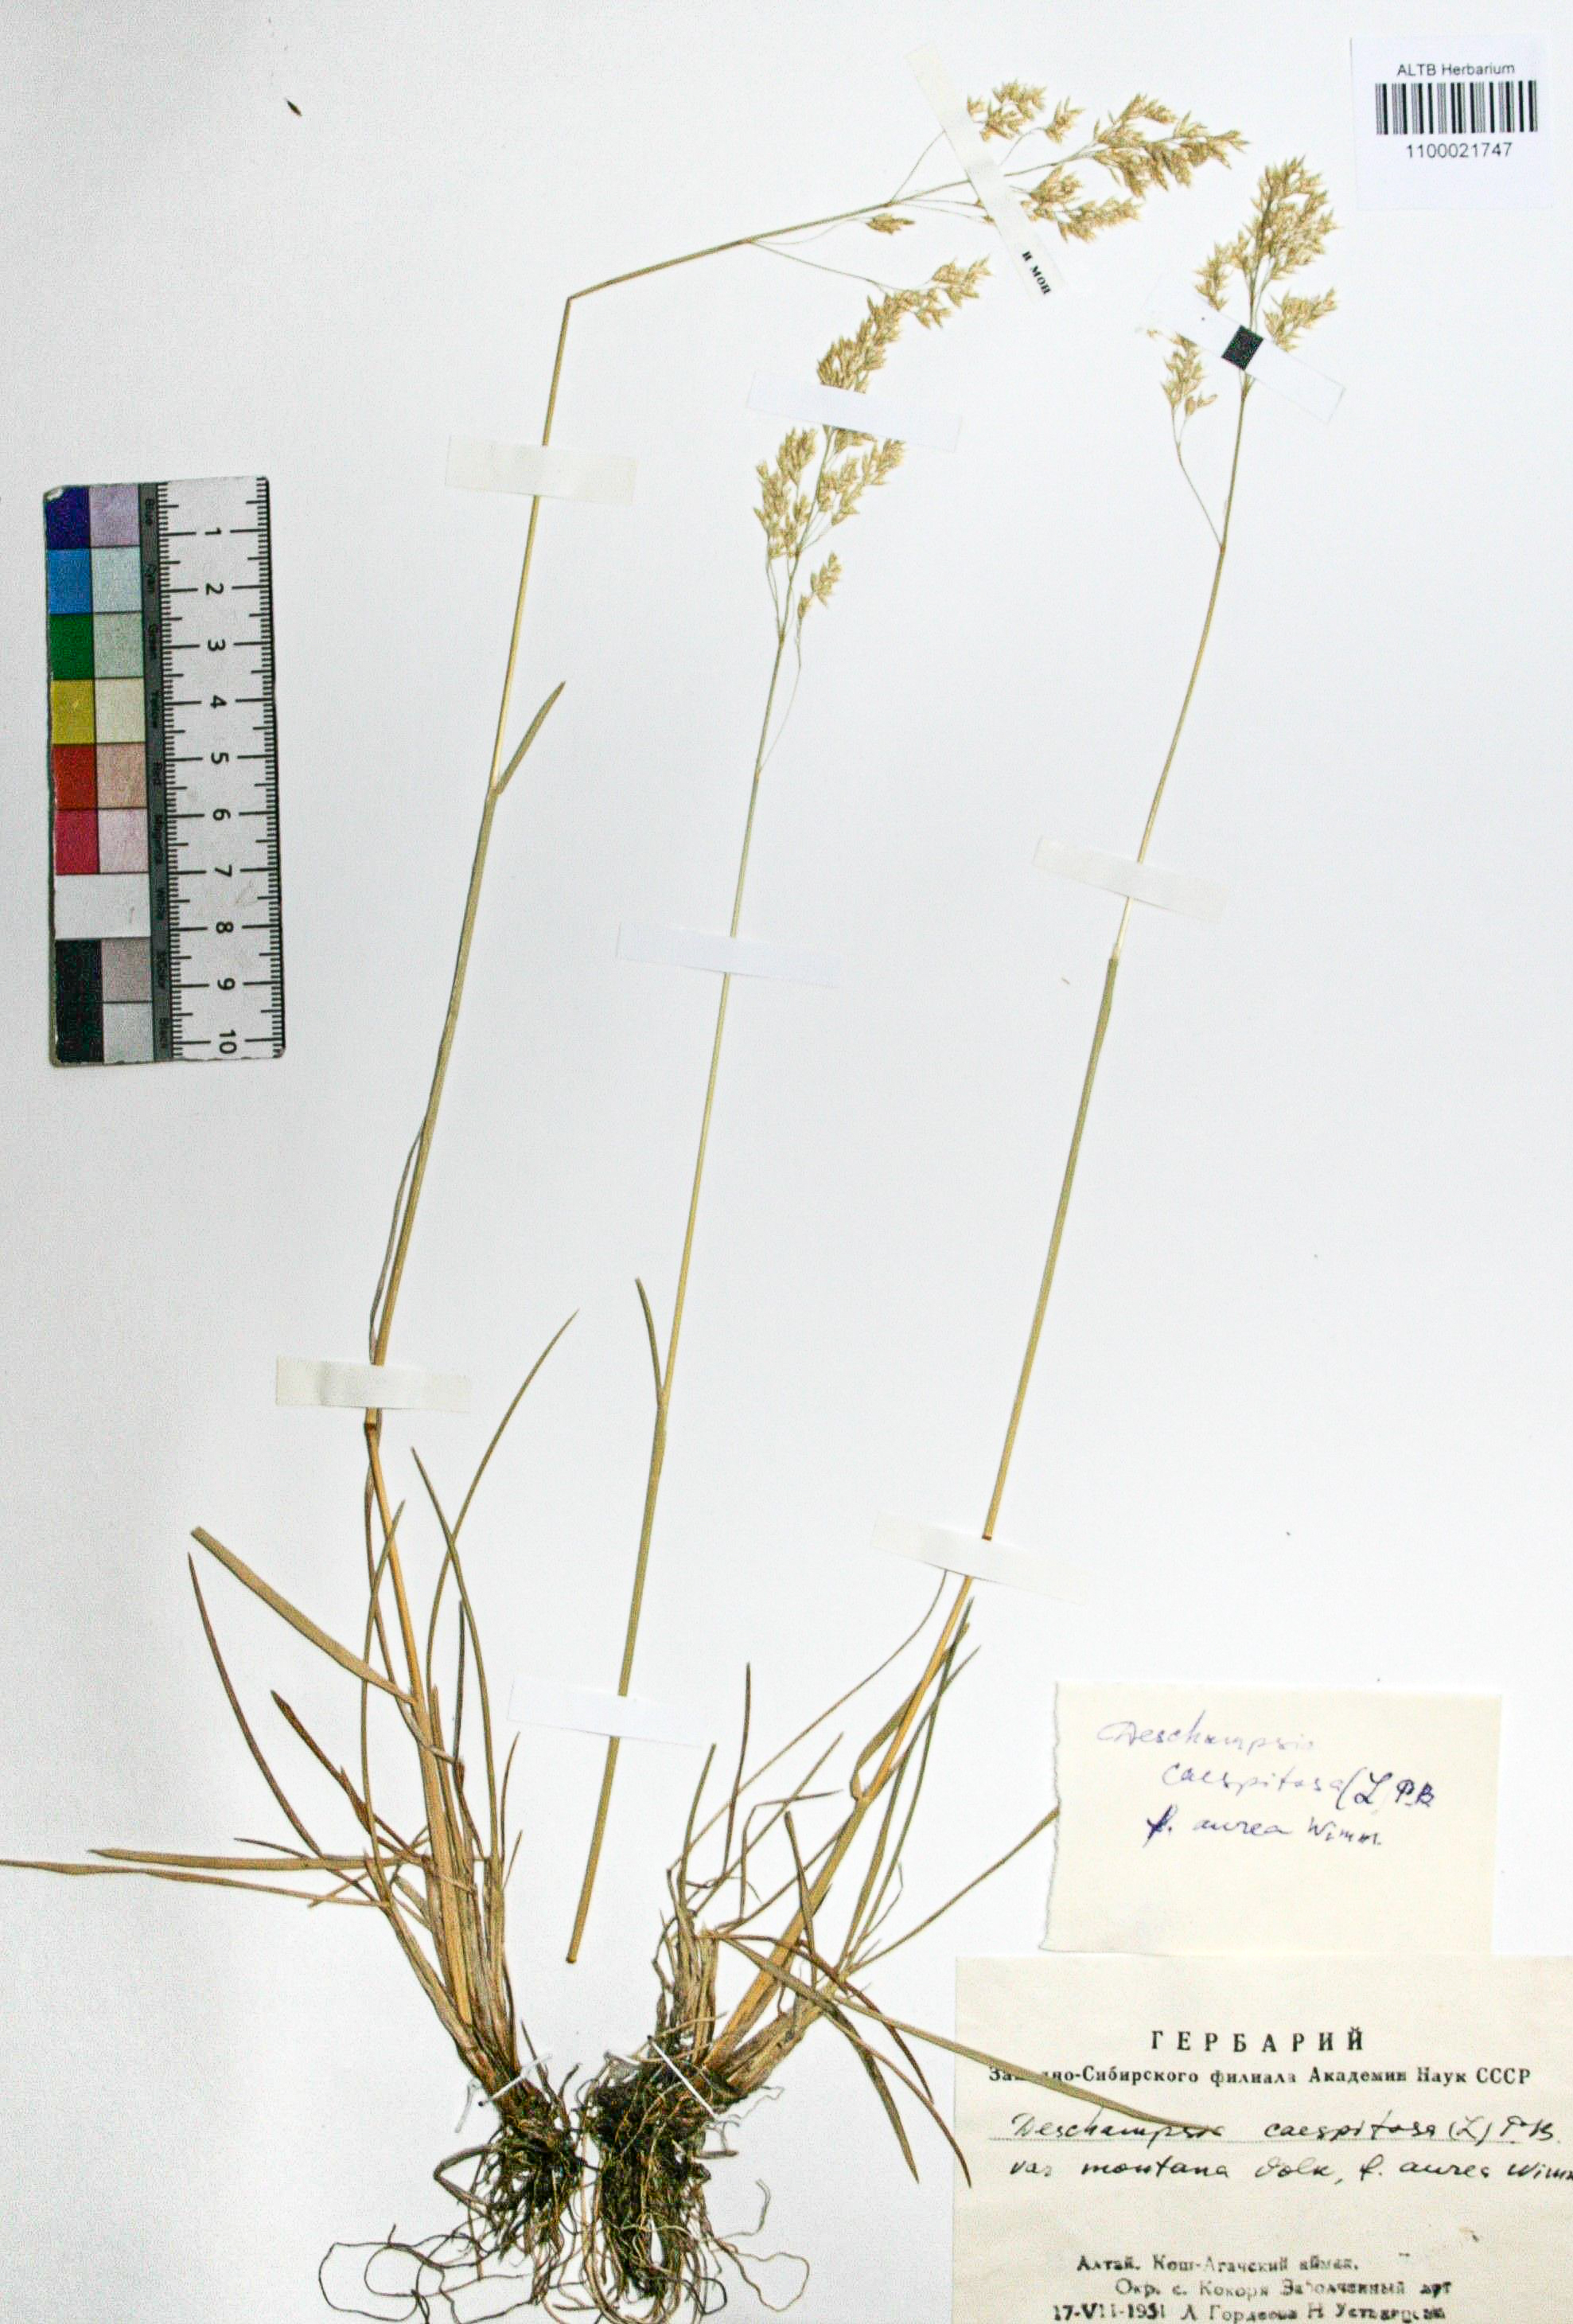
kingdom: Plantae
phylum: Tracheophyta
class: Liliopsida
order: Poales
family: Poaceae
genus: Deschampsia
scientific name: Deschampsia cespitosa
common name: Tufted hair-grass
